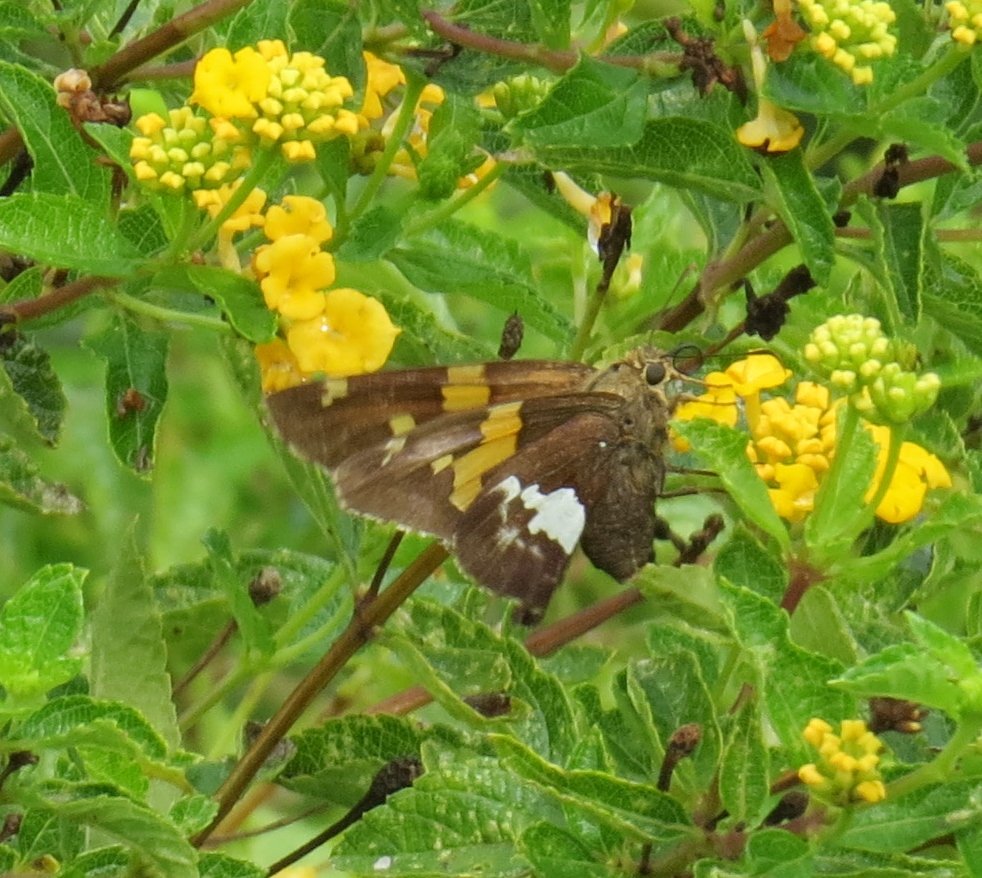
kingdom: Animalia
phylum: Arthropoda
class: Insecta
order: Lepidoptera
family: Hesperiidae
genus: Epargyreus
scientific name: Epargyreus clarus
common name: Silver-spotted Skipper
